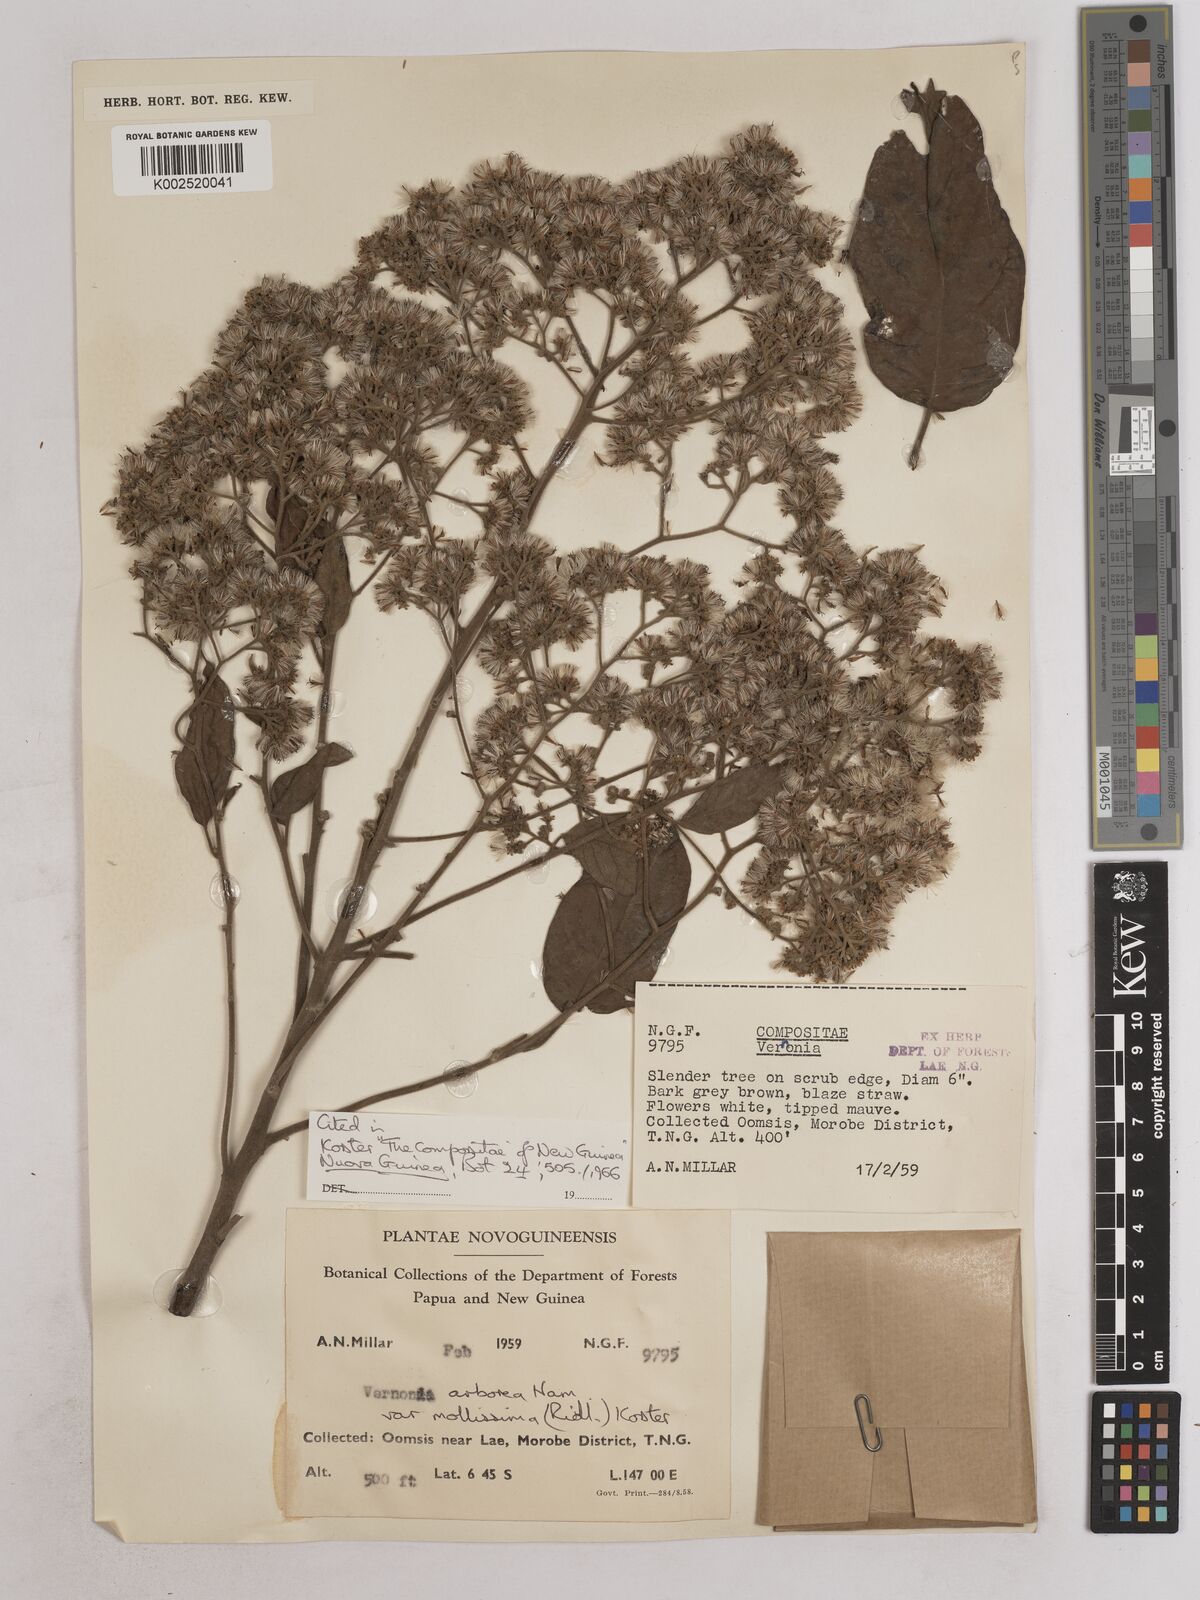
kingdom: Plantae
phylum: Tracheophyta
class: Magnoliopsida
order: Asterales
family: Asteraceae
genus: Strobocalyx
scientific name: Strobocalyx arborea
